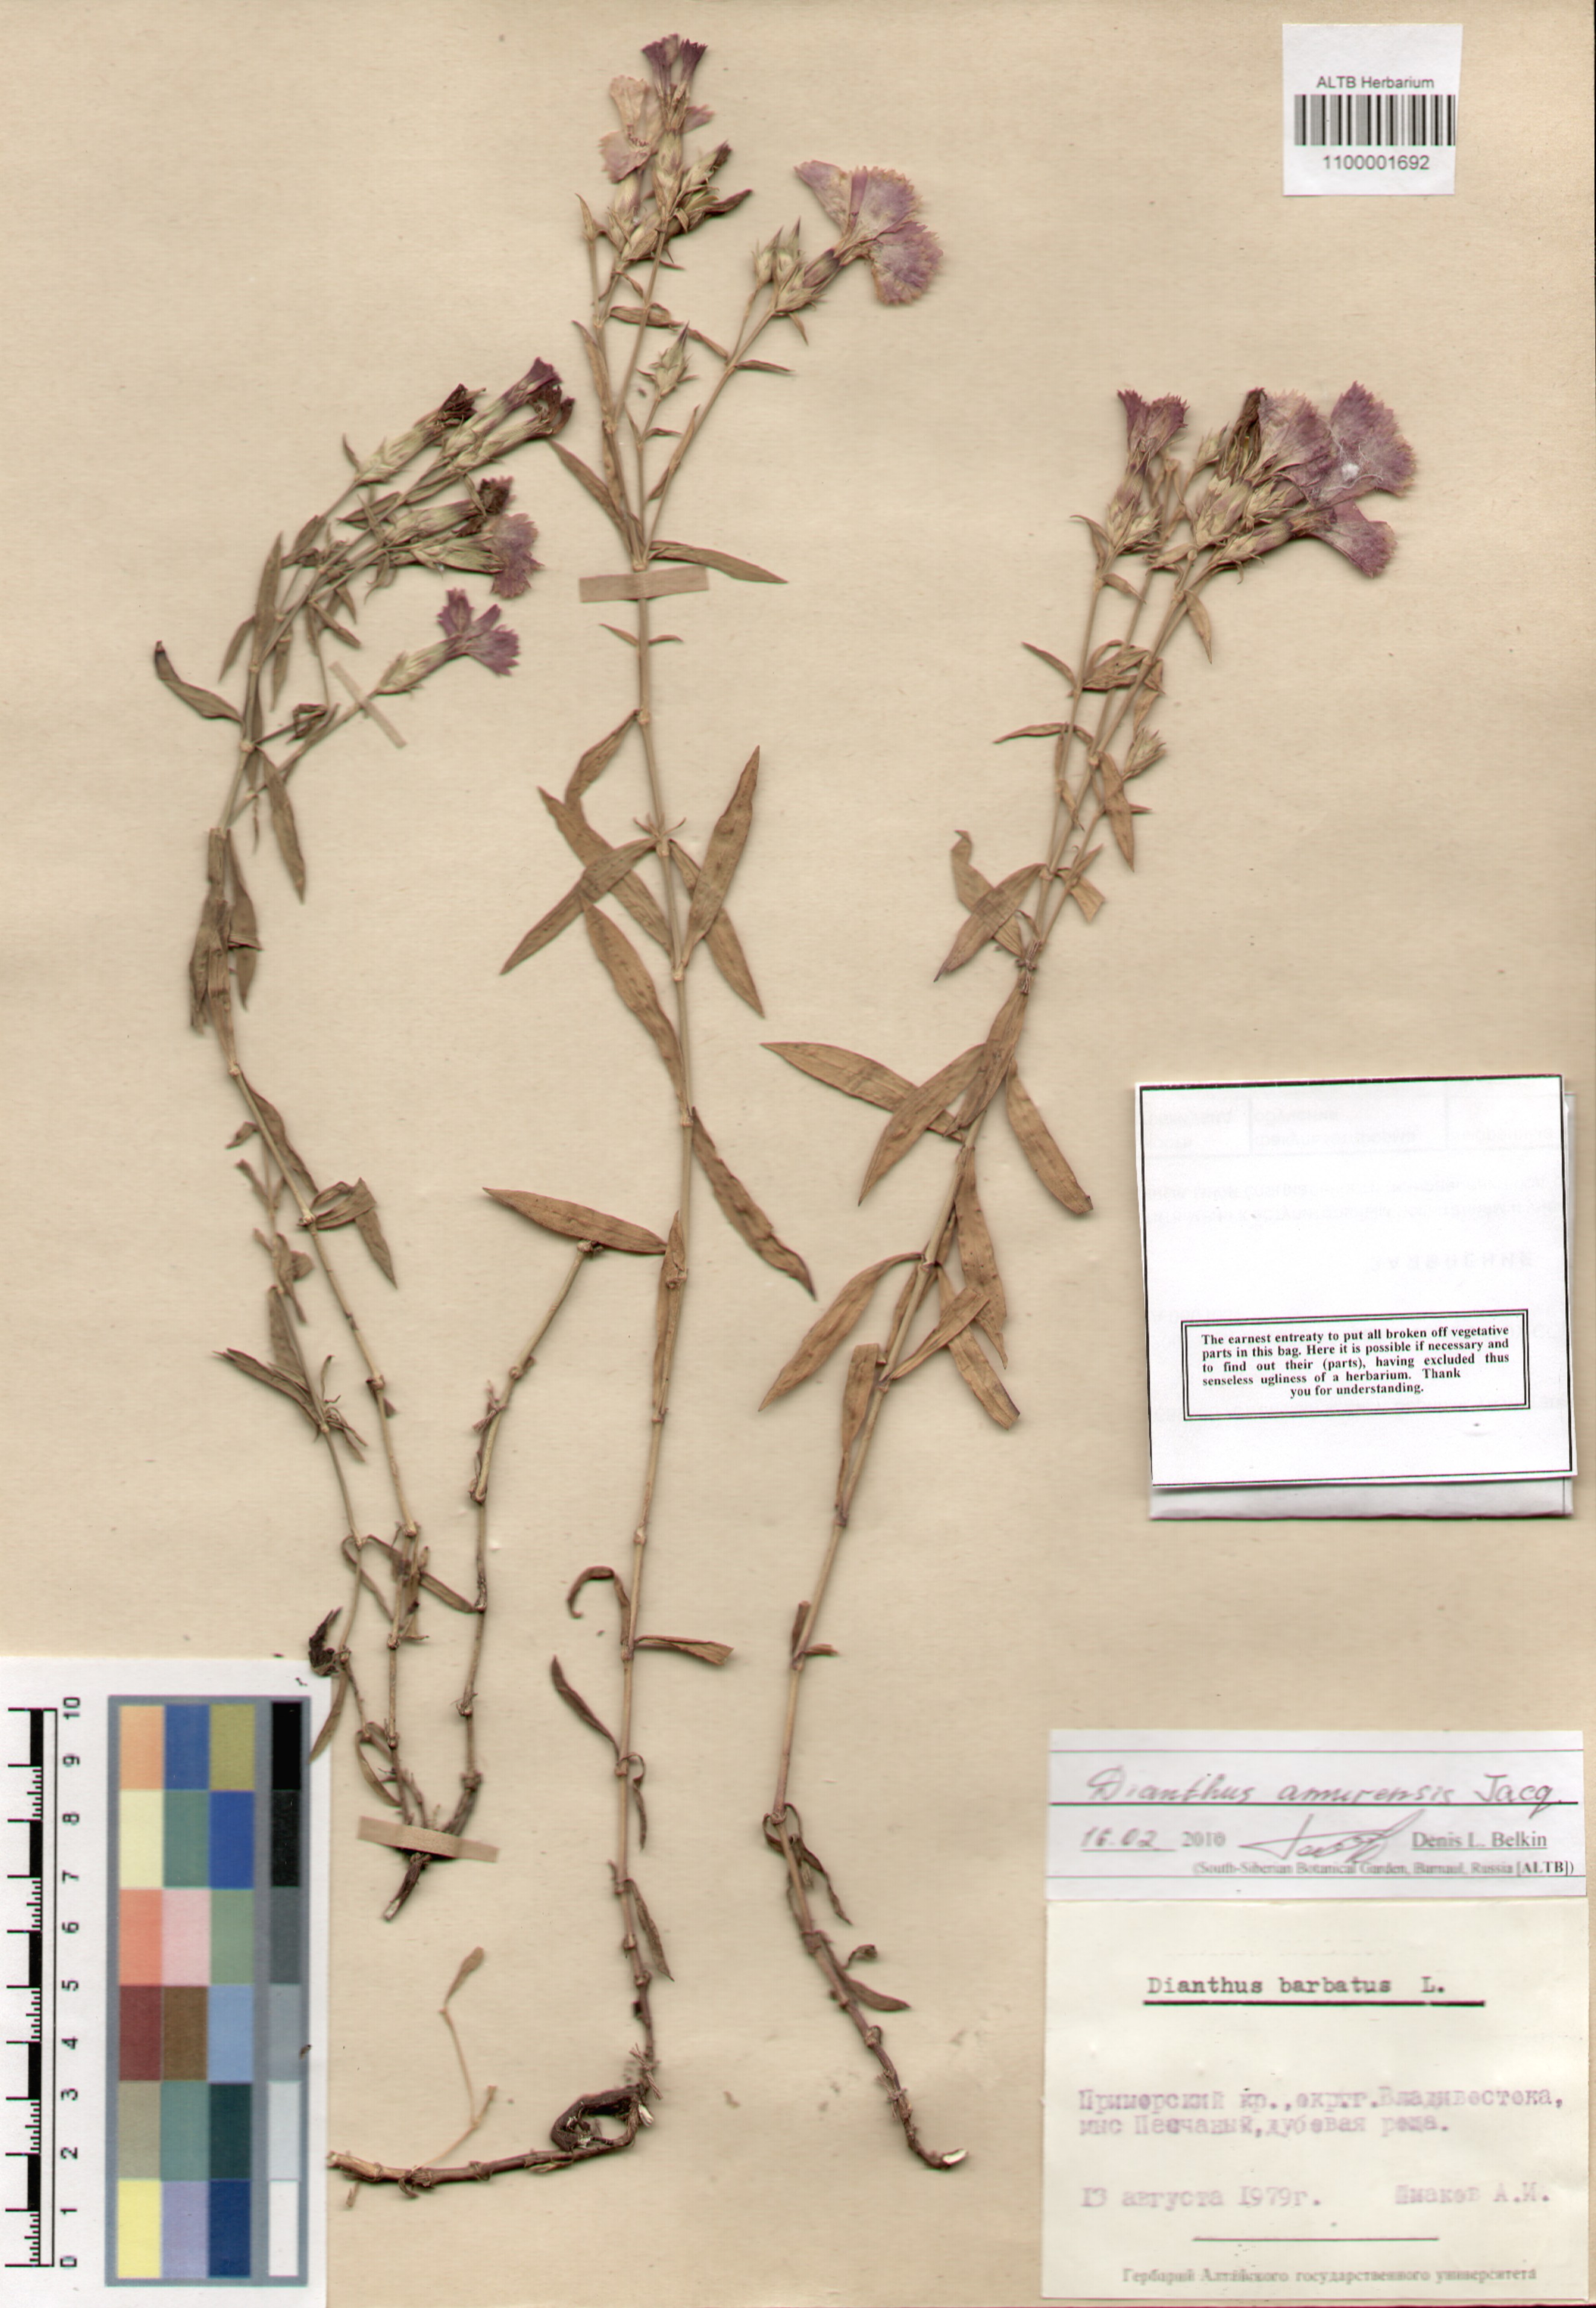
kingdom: Plantae
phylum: Tracheophyta
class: Magnoliopsida
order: Caryophyllales
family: Caryophyllaceae
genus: Dianthus
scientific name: Dianthus chinensis
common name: Rainbow pink
